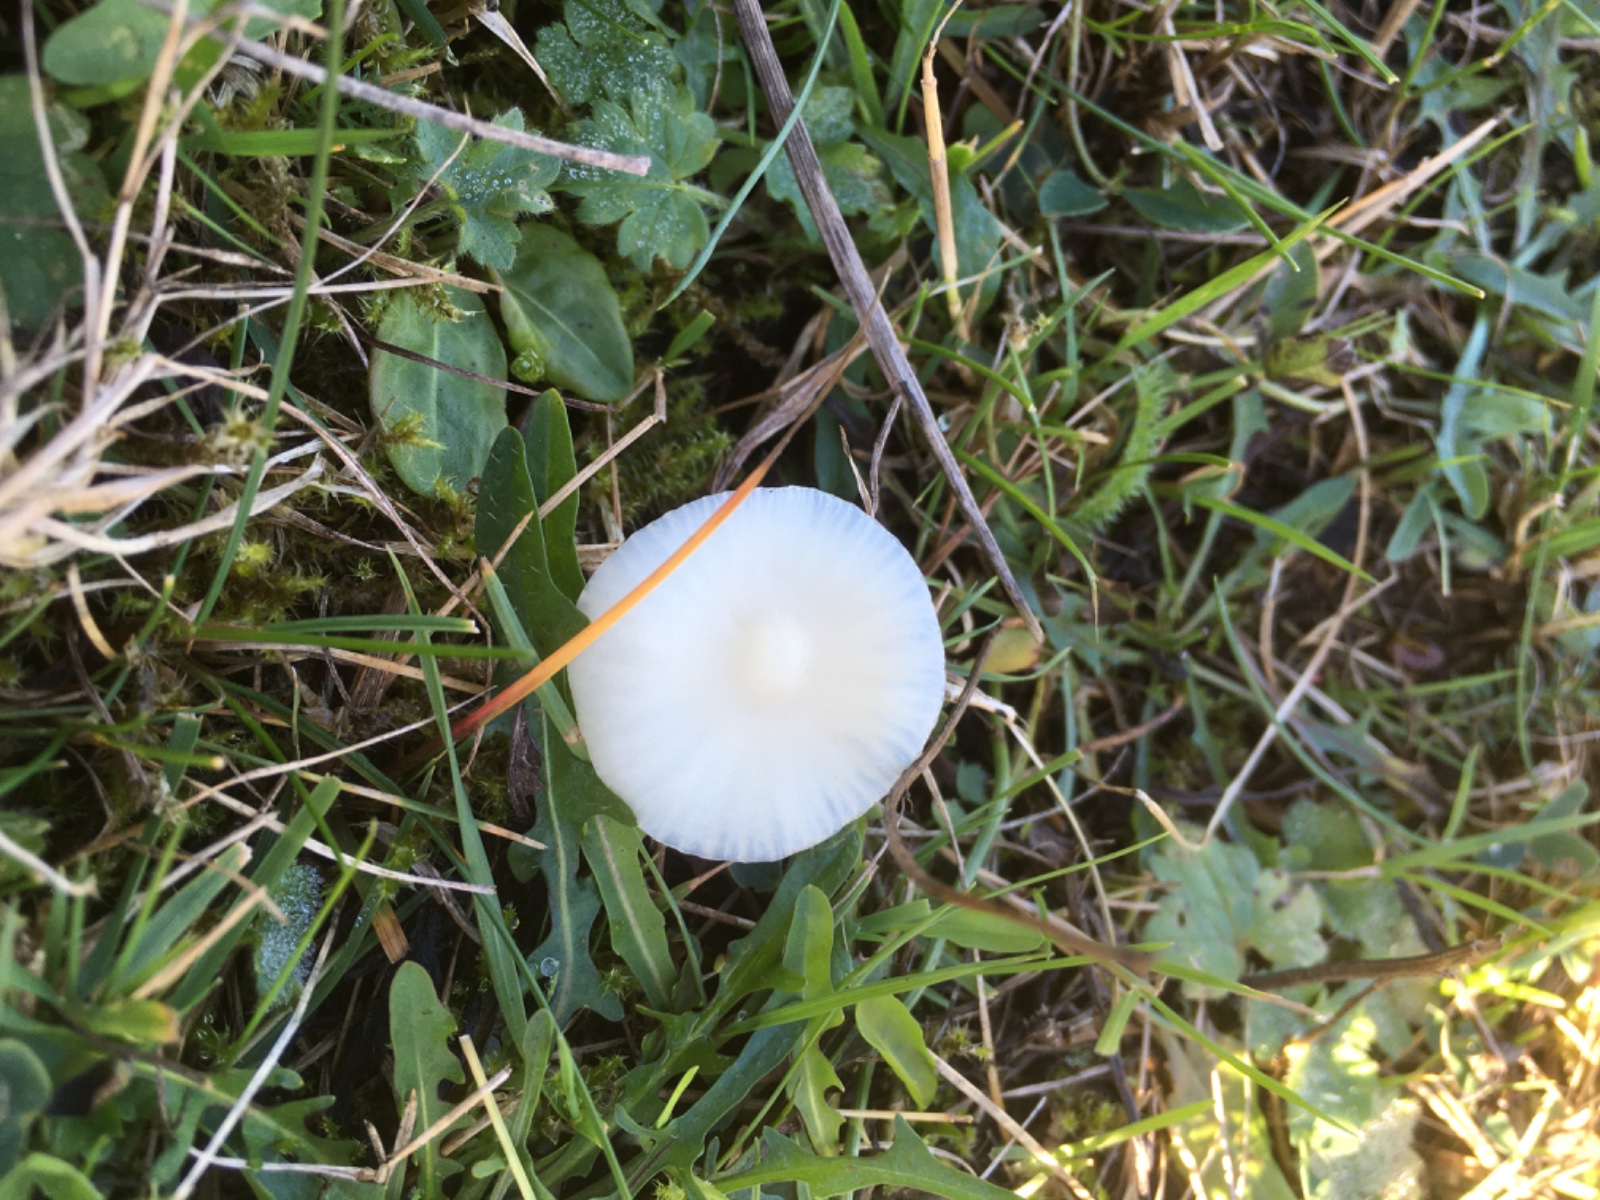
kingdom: Fungi
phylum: Basidiomycota
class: Agaricomycetes
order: Agaricales
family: Hygrophoraceae
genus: Cuphophyllus
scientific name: Cuphophyllus virgineus
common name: snehvid vokshat
